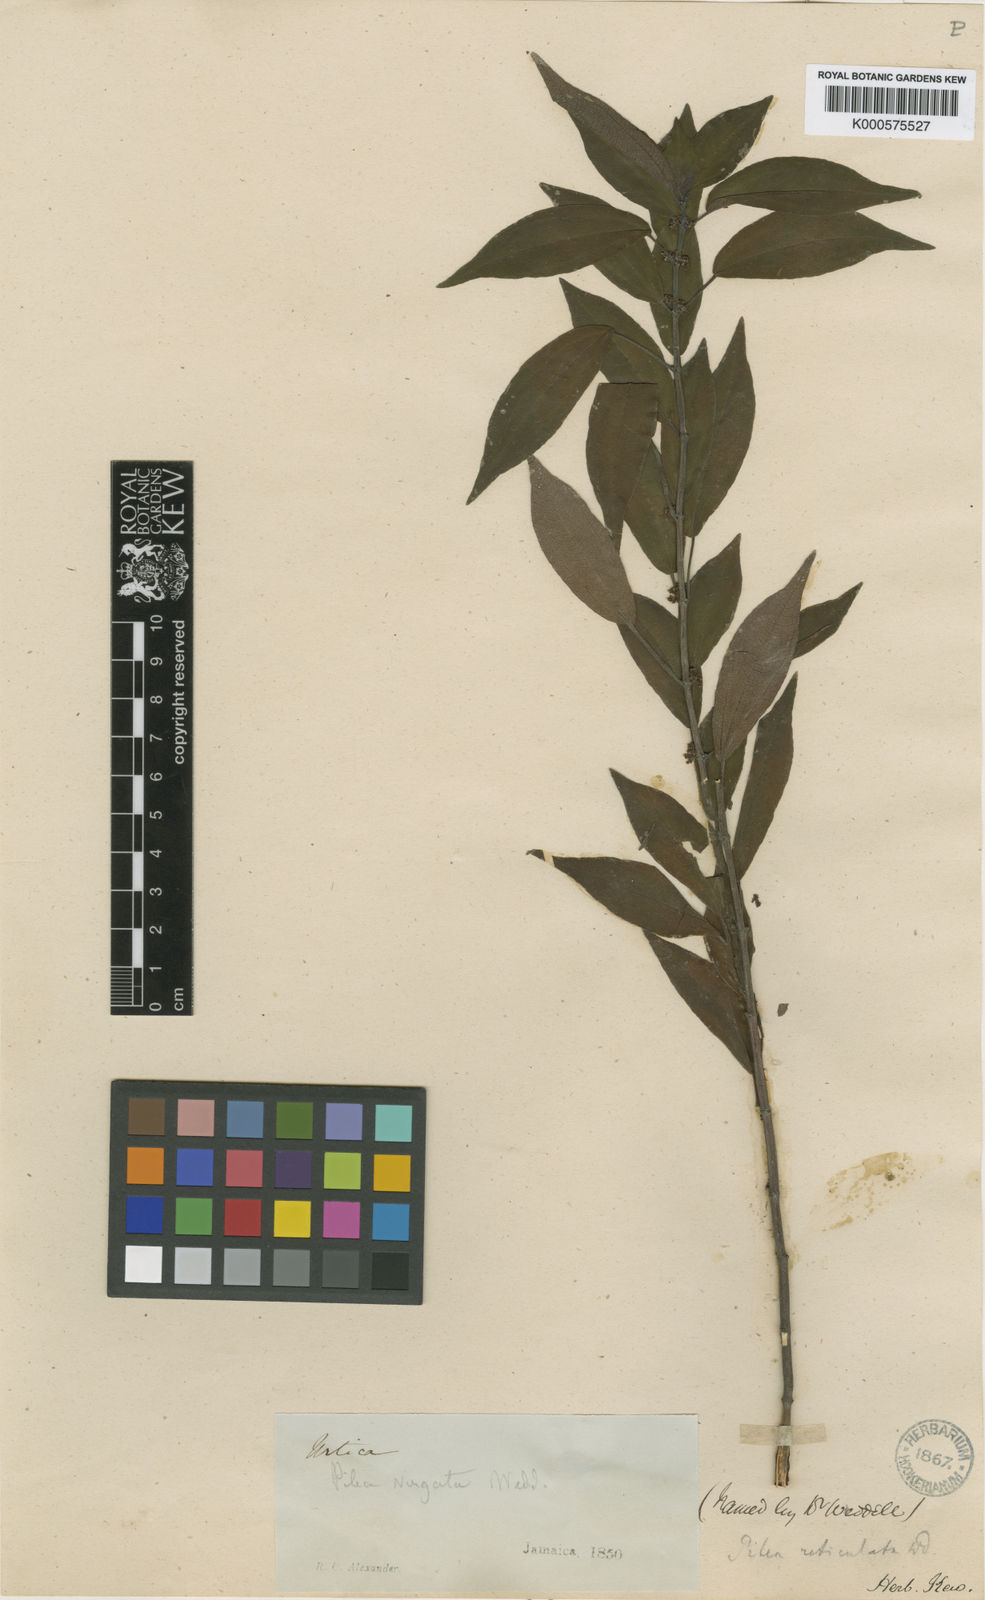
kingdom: Plantae
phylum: Tracheophyta
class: Magnoliopsida
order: Rosales
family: Urticaceae
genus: Pilea
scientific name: Pilea virgata
